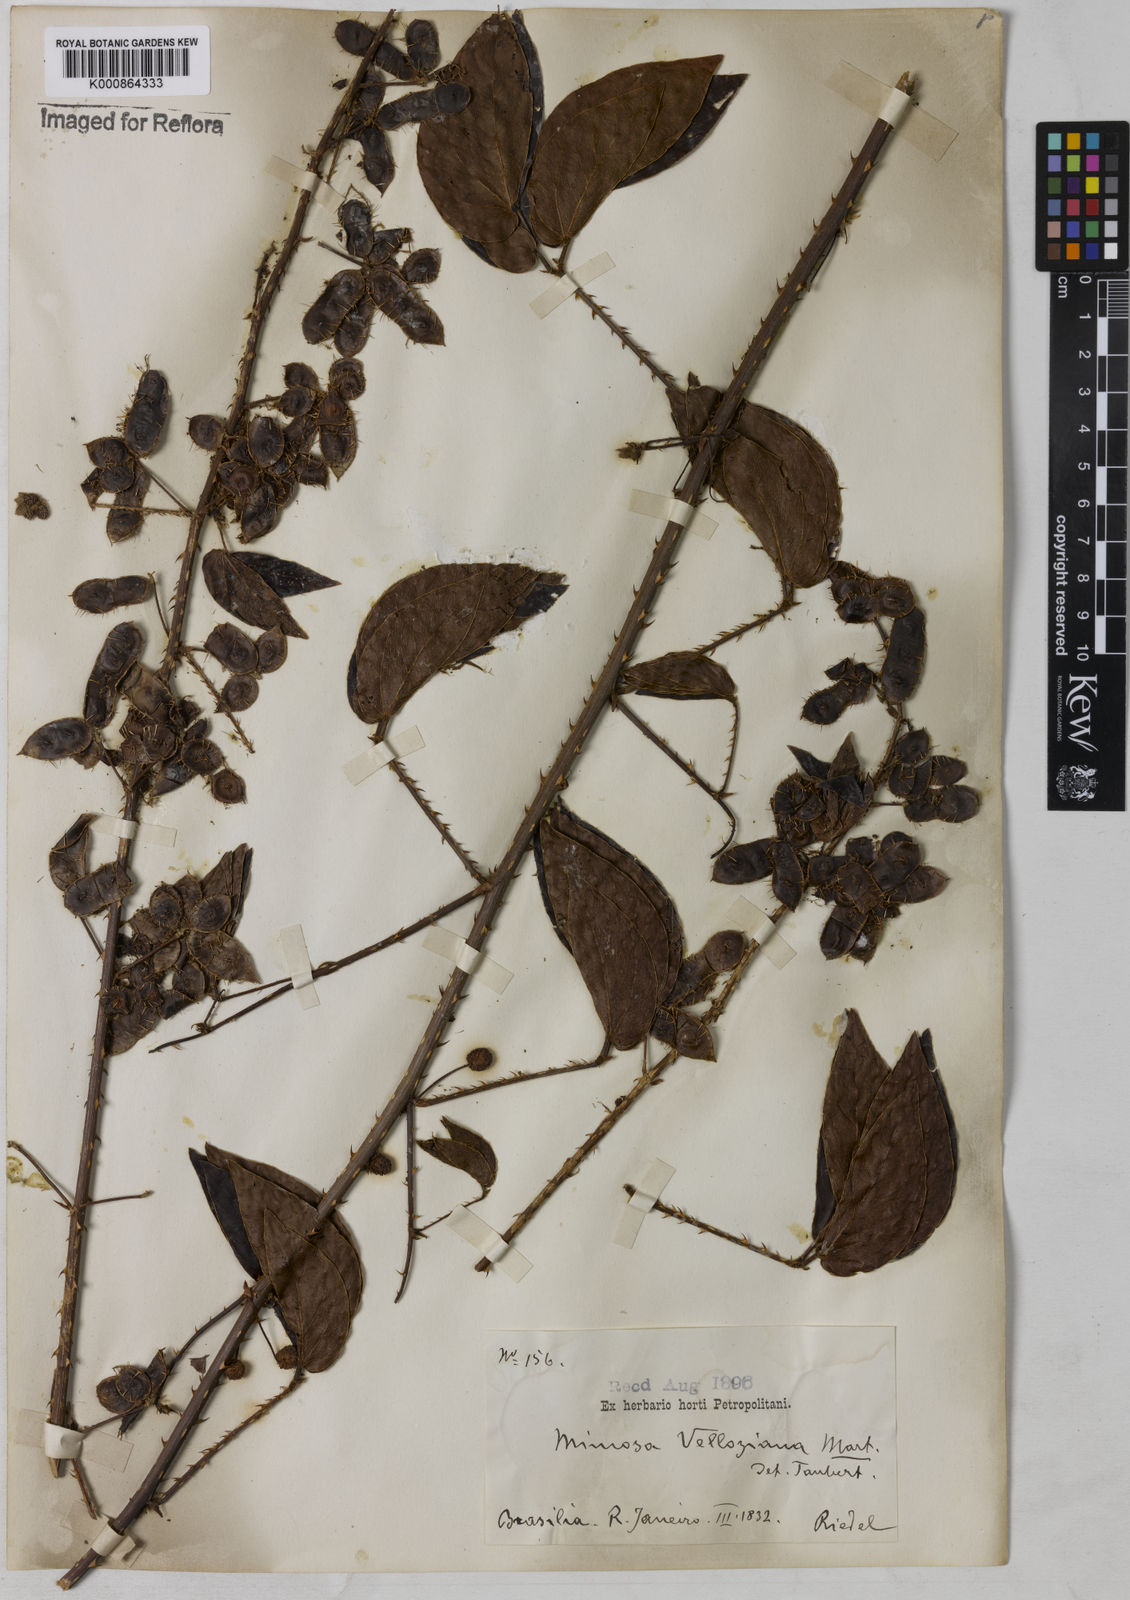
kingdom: Plantae
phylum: Tracheophyta
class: Magnoliopsida
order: Fabales
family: Fabaceae
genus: Mimosa
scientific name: Mimosa velloziana
